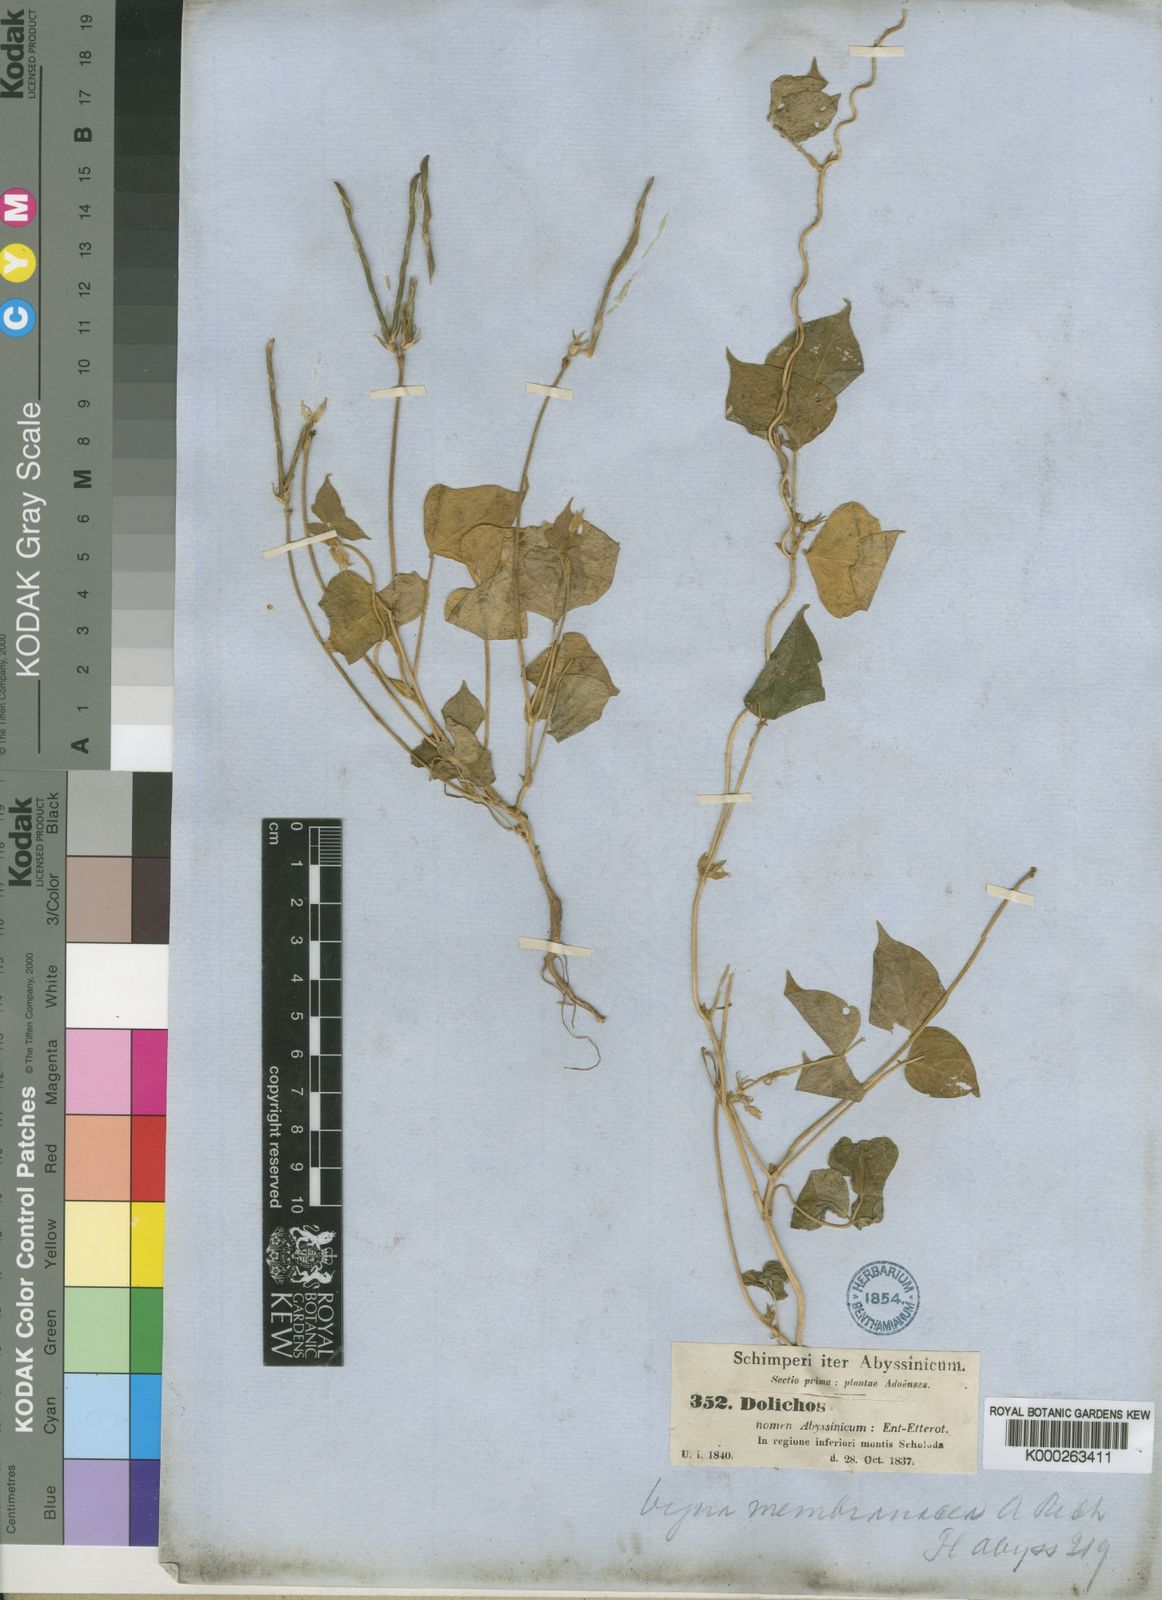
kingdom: Plantae
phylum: Tracheophyta
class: Magnoliopsida
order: Fabales
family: Fabaceae
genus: Vigna
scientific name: Vigna membranacea
